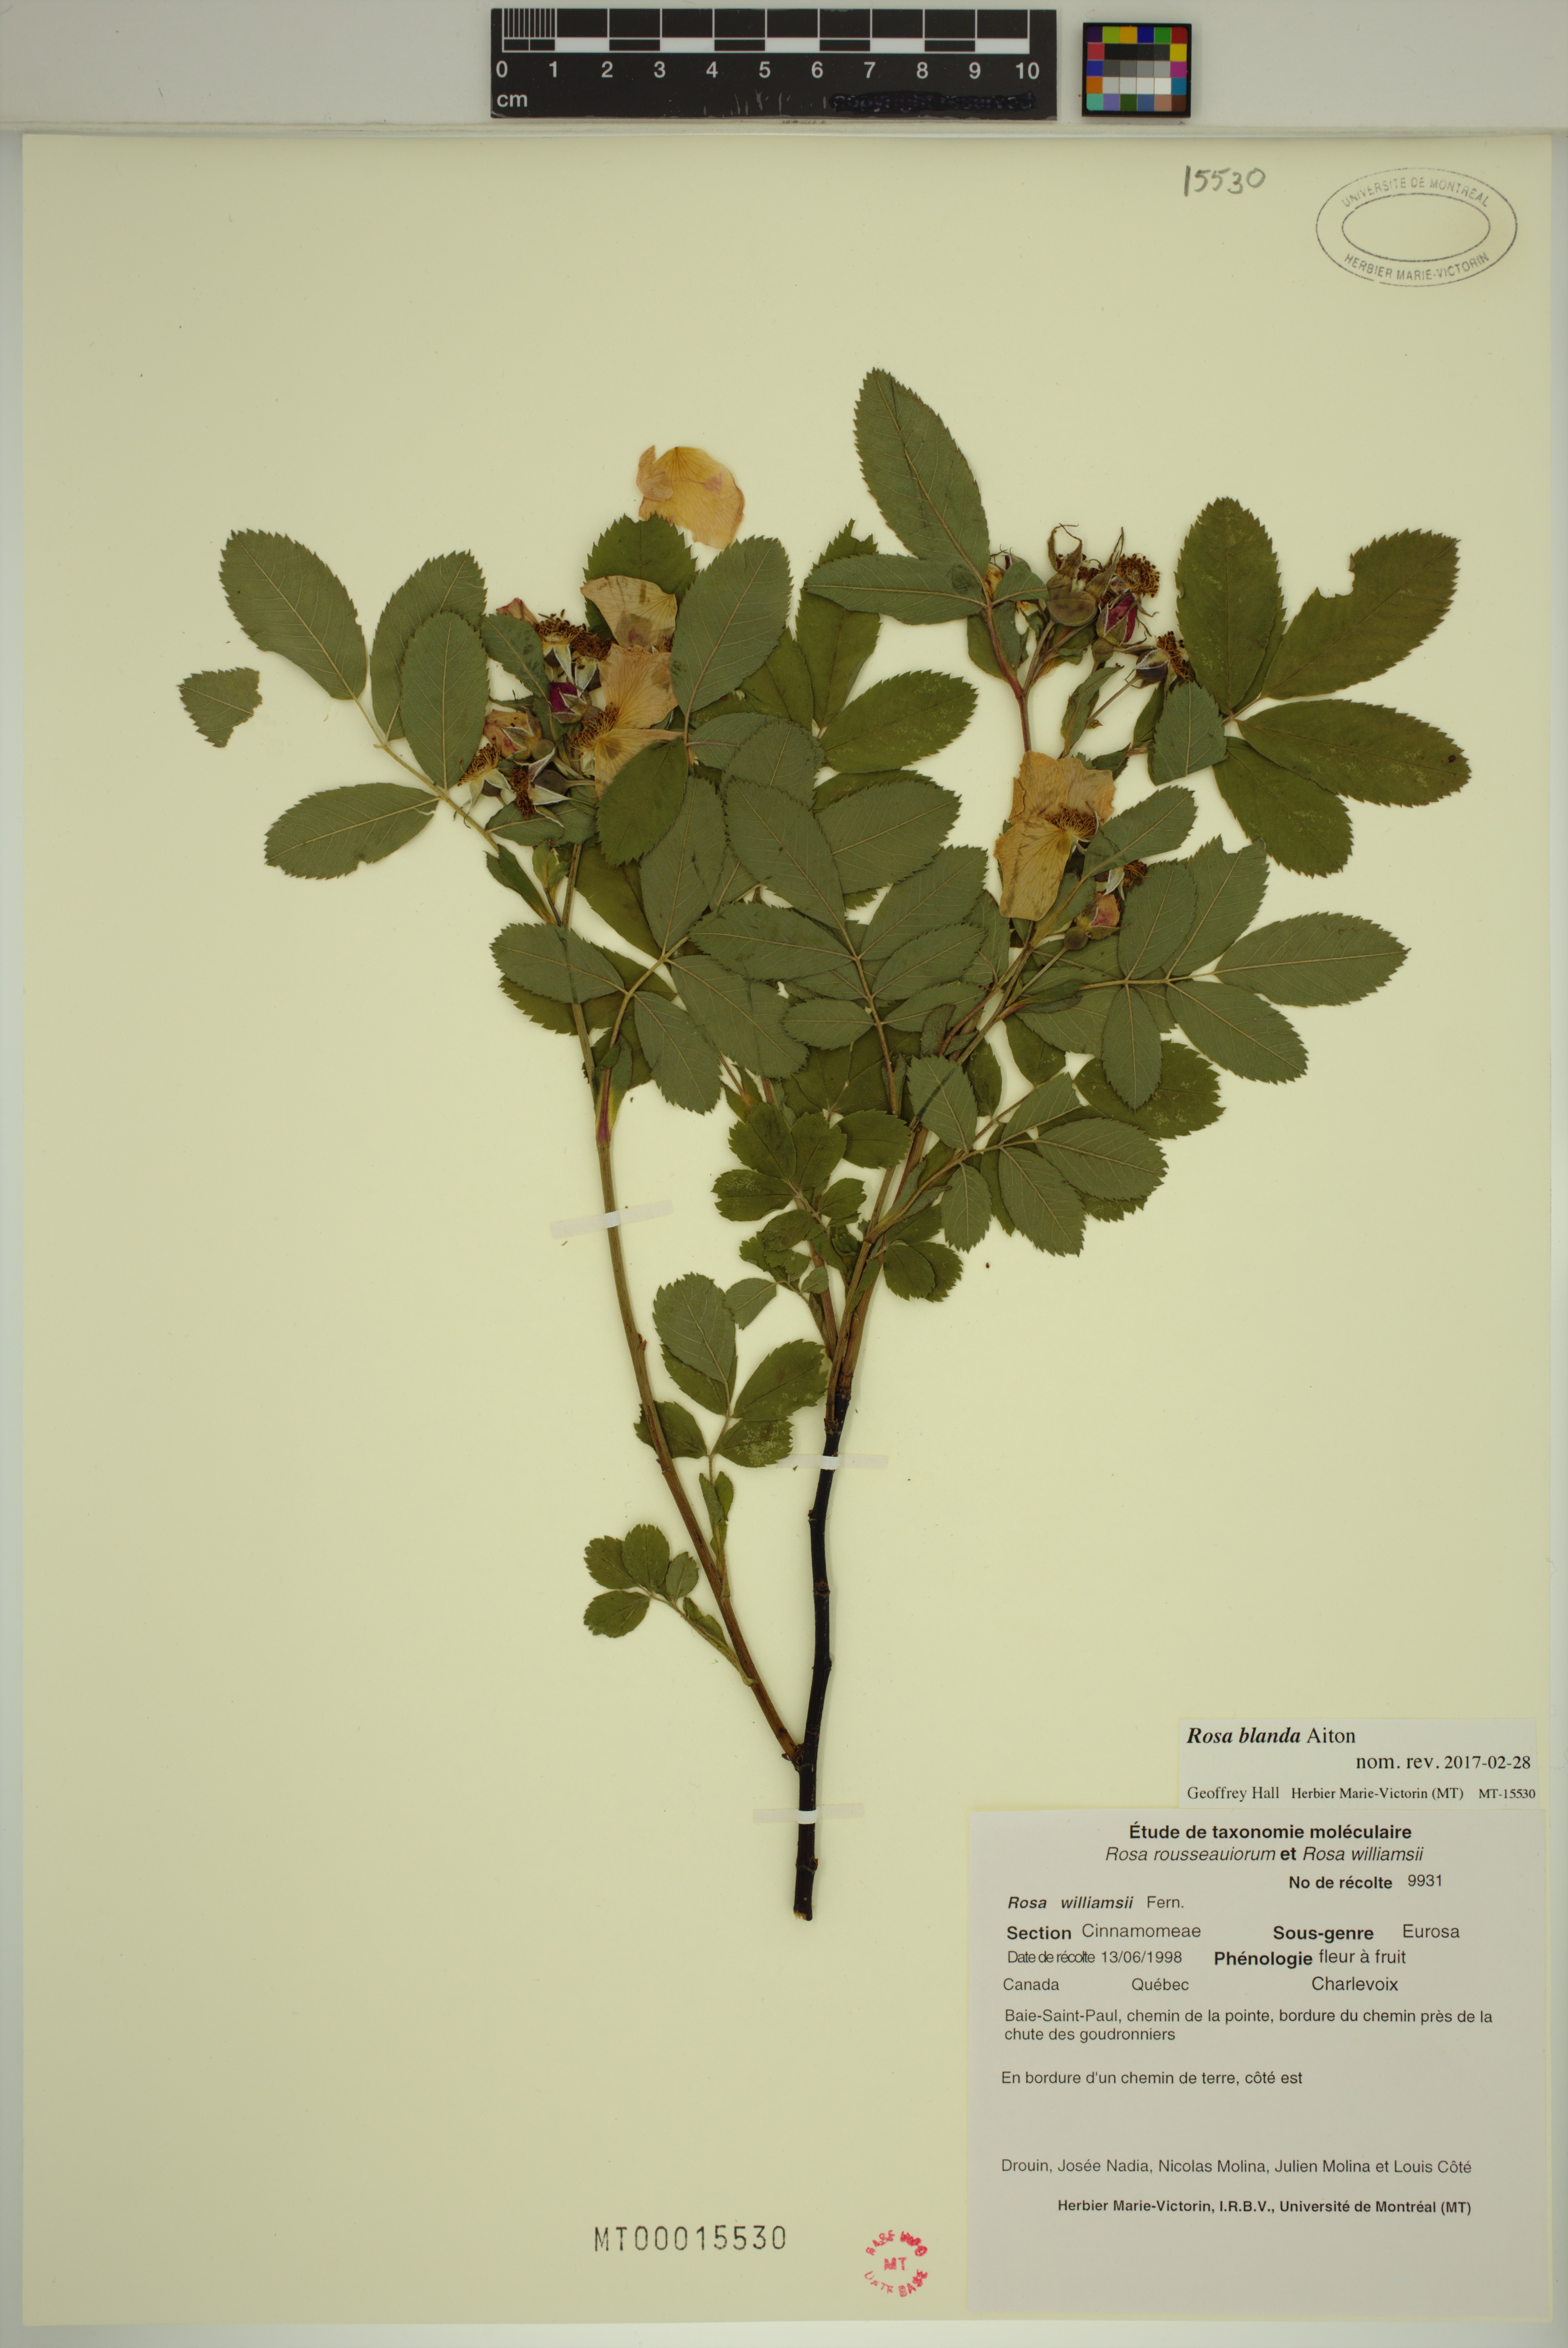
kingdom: Plantae
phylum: Tracheophyta
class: Magnoliopsida
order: Rosales
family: Rosaceae
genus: Rosa
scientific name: Rosa blanda
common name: Smooth rose
